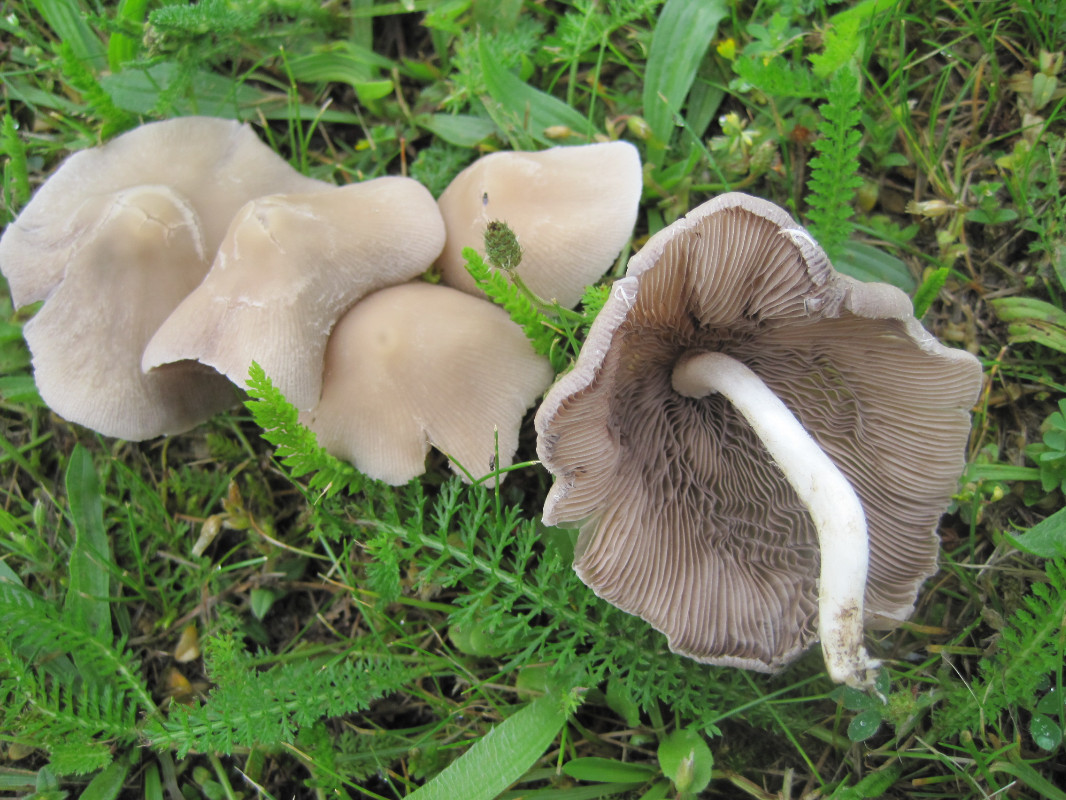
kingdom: Fungi
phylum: Basidiomycota
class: Agaricomycetes
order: Agaricales
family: Psathyrellaceae
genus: Candolleomyces
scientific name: Candolleomyces candolleanus
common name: Candolles mørkhat
